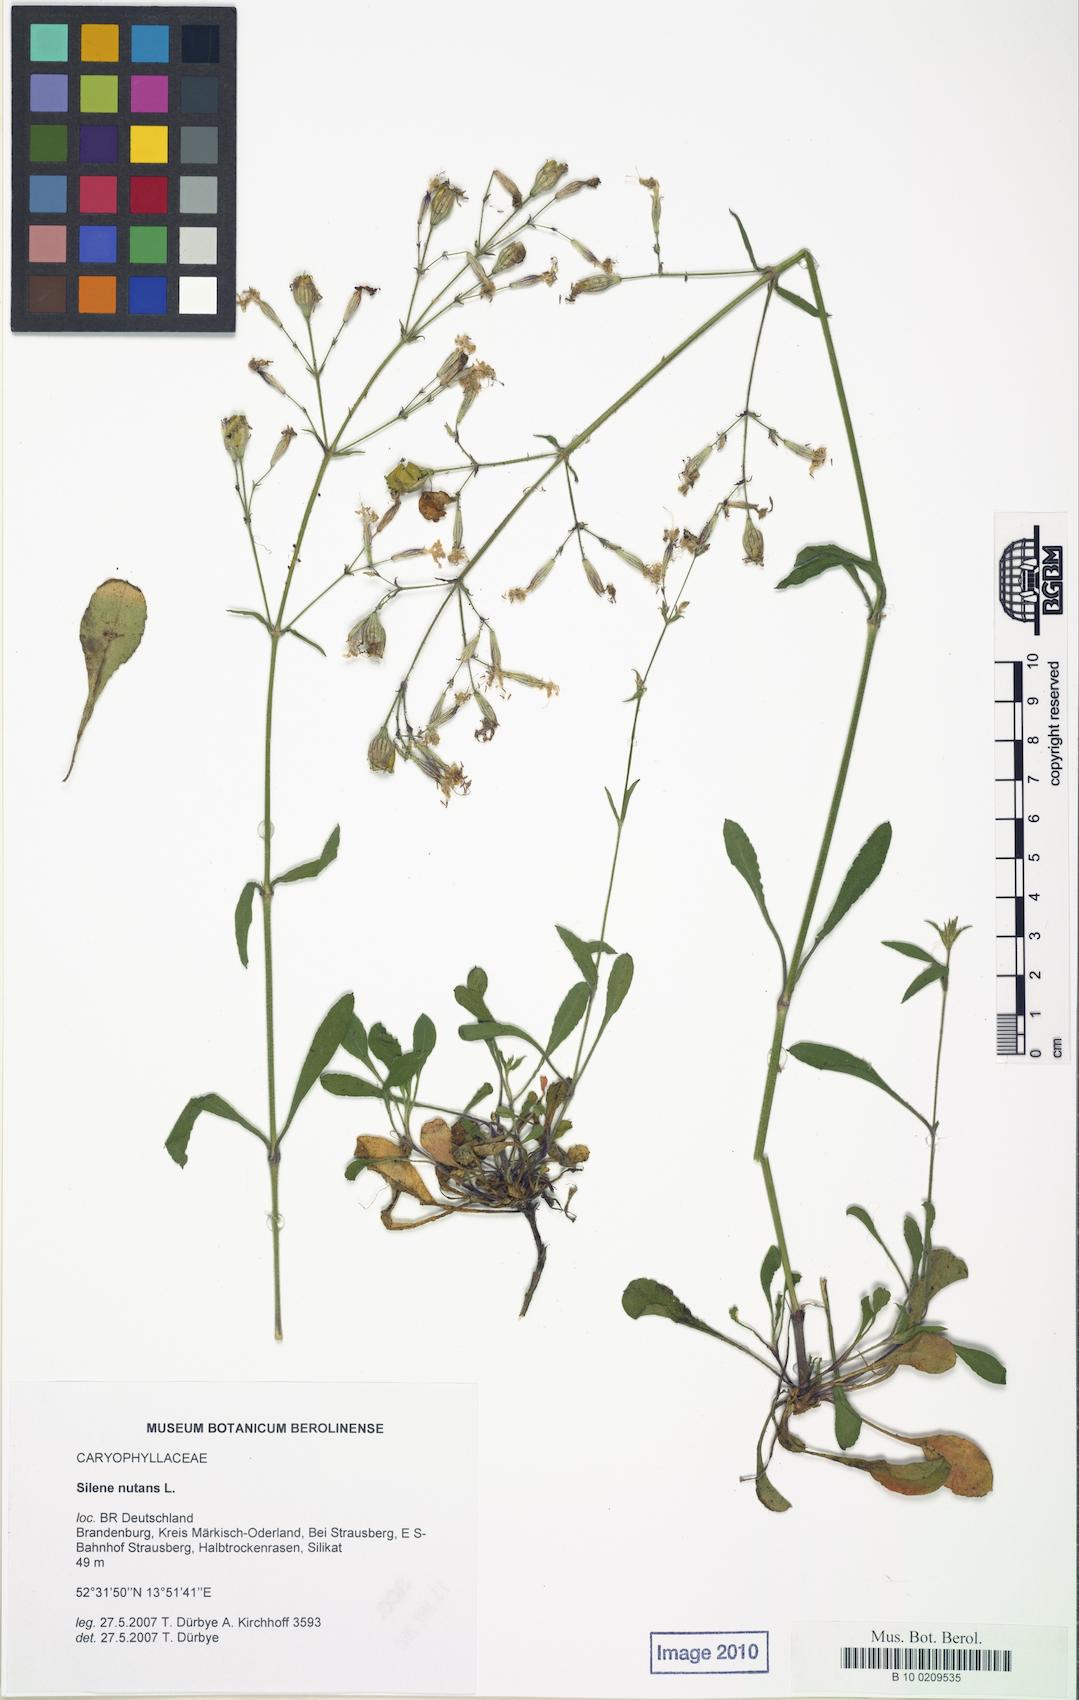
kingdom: Plantae
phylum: Tracheophyta
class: Magnoliopsida
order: Caryophyllales
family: Caryophyllaceae
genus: Silene
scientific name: Silene nutans
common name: Nottingham catchfly
